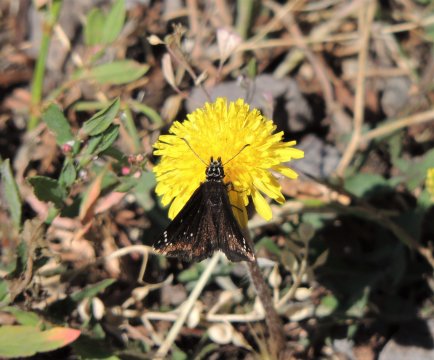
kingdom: Animalia
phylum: Arthropoda
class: Insecta
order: Lepidoptera
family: Hesperiidae
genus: Pholisora
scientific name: Pholisora catullus
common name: Common Sootywing
